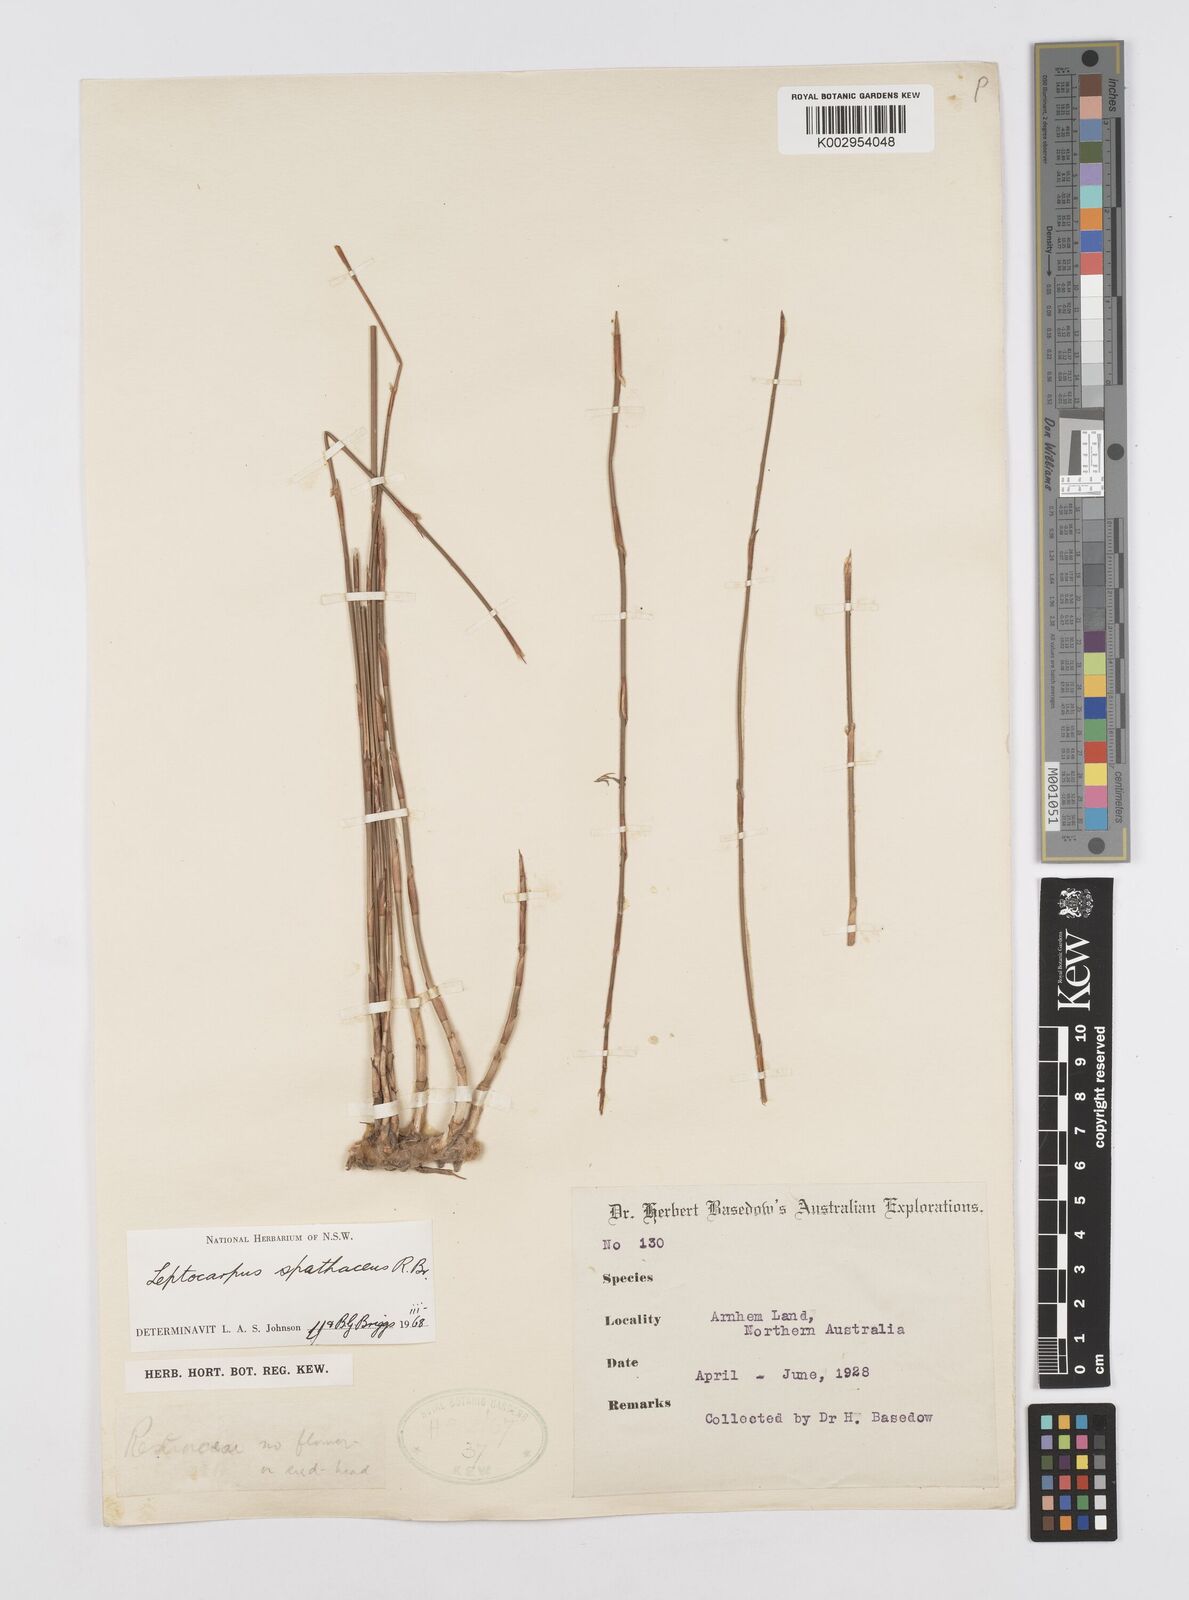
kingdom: Plantae
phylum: Tracheophyta
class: Liliopsida
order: Poales
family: Restionaceae
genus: Dapsilanthus
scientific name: Dapsilanthus spathaceus
